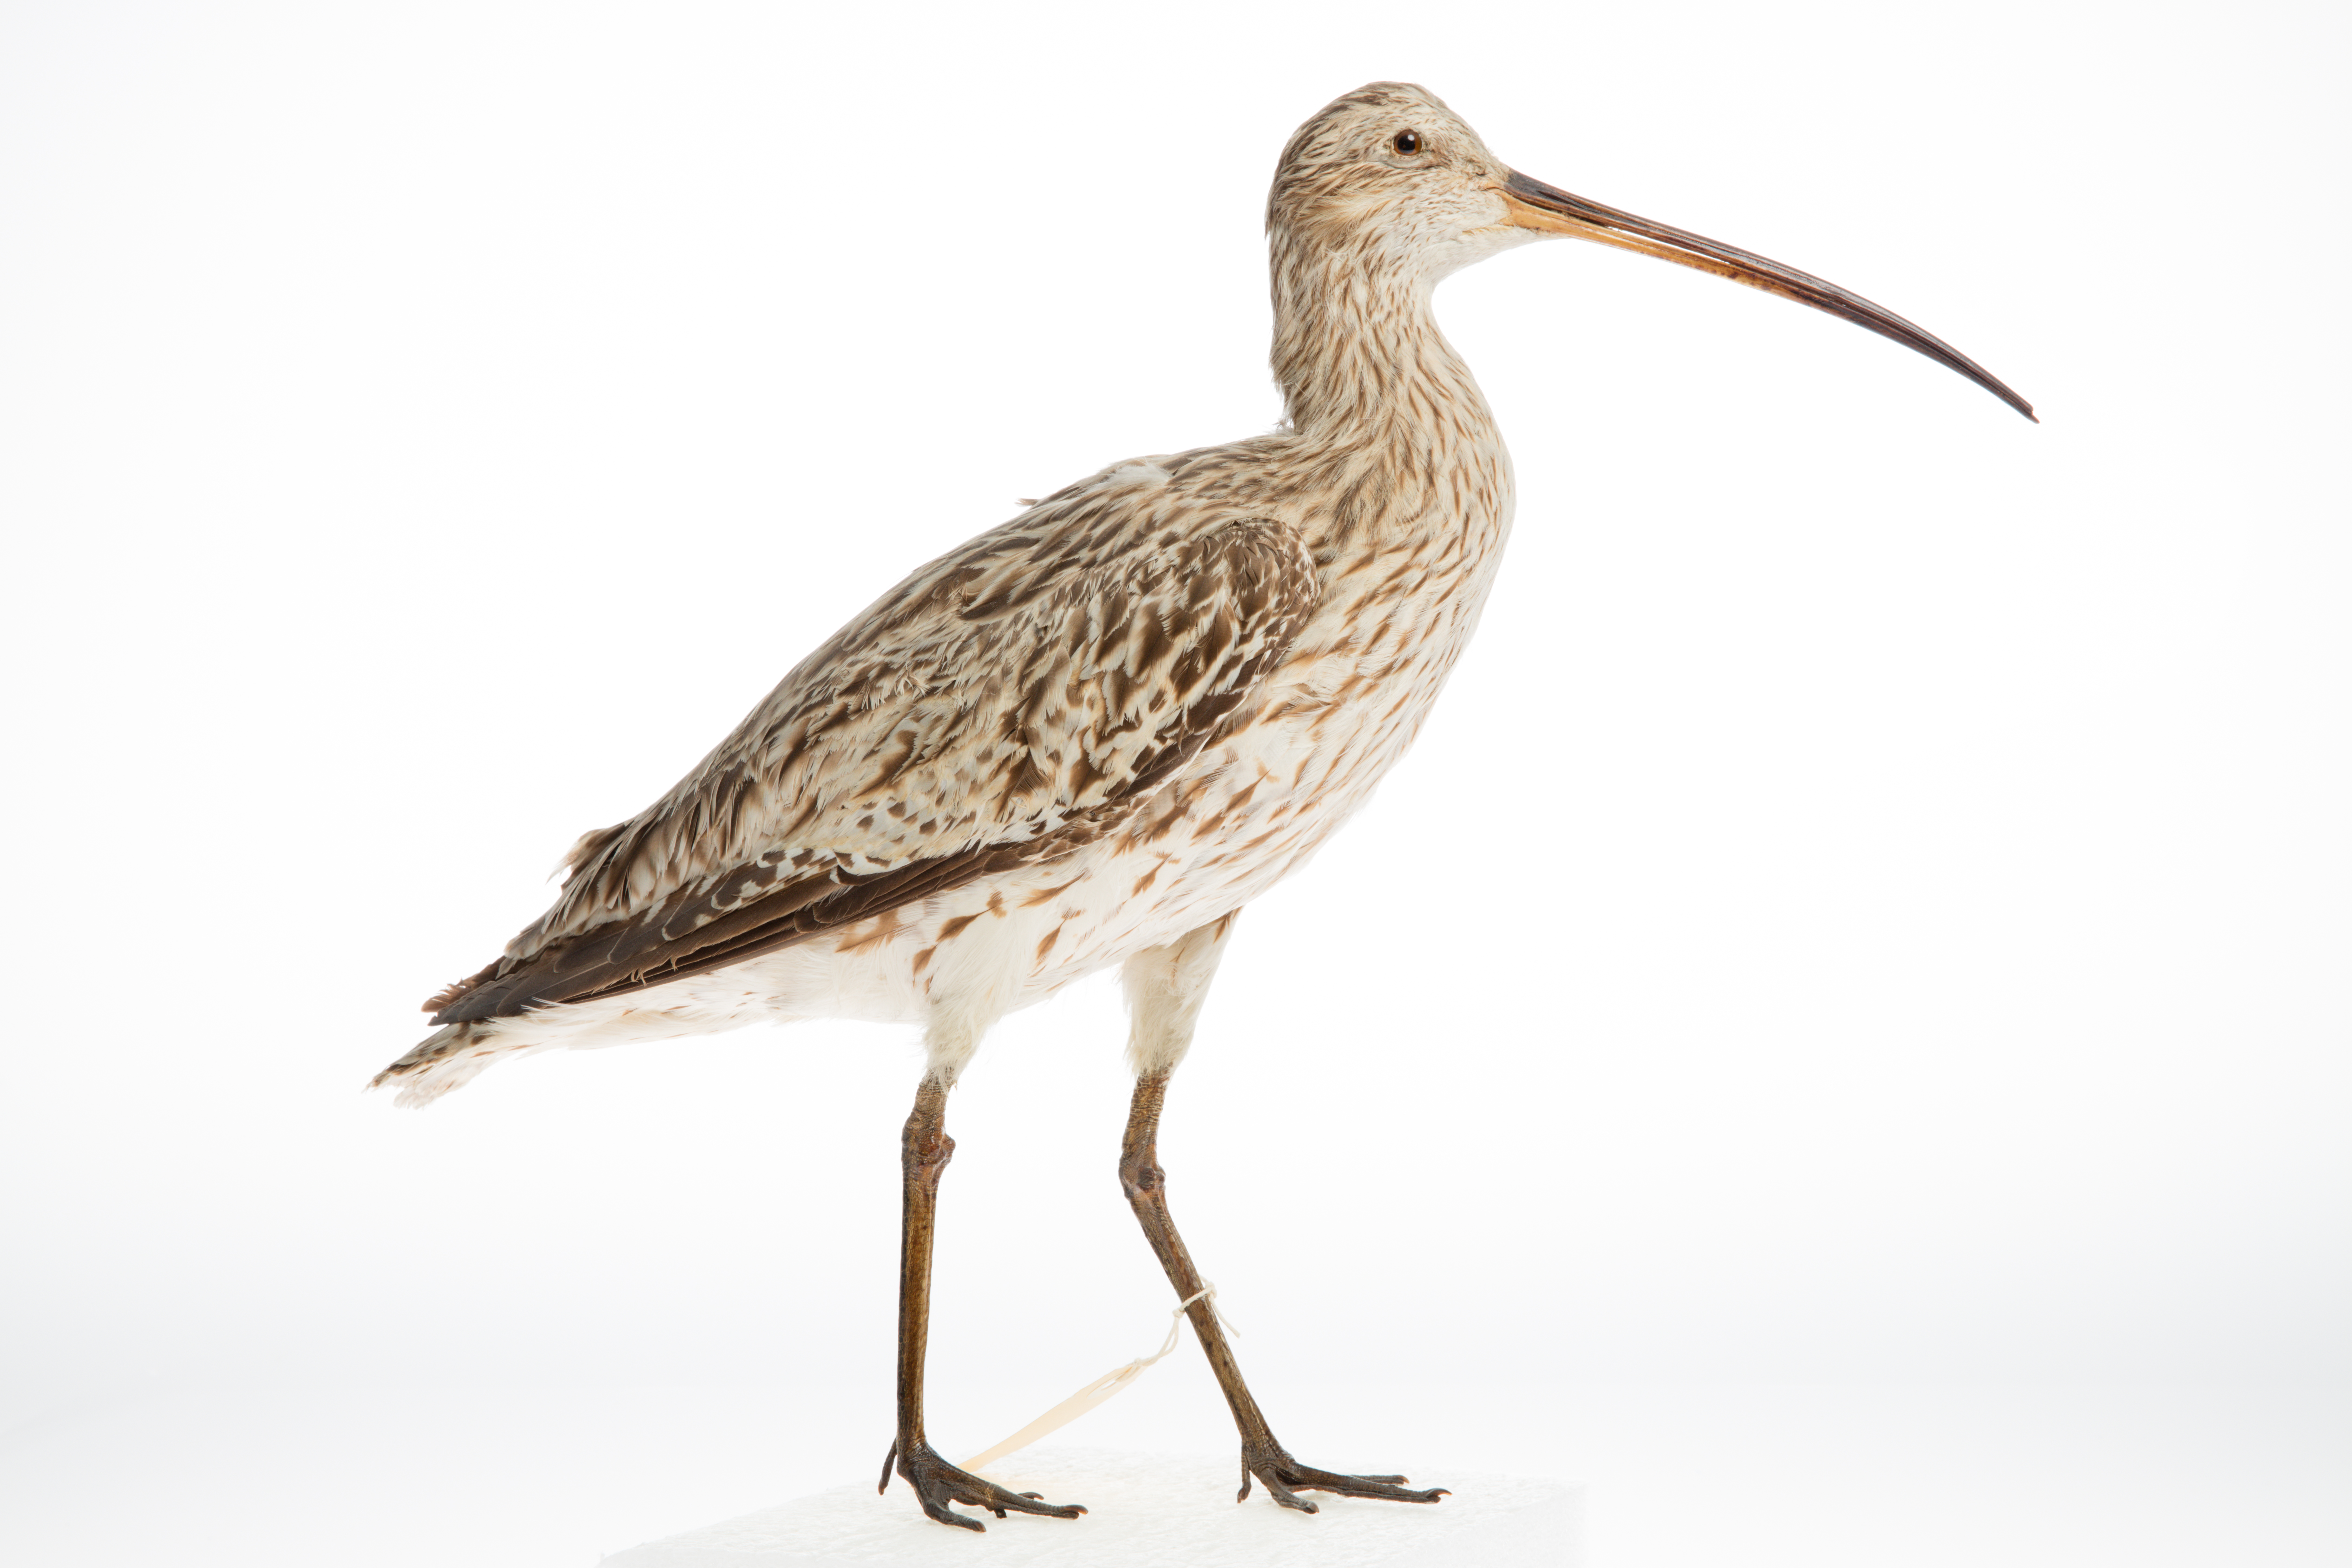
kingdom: Animalia
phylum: Chordata
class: Aves
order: Charadriiformes
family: Scolopacidae
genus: Numenius
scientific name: Numenius arquata
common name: Eurasian curlew
